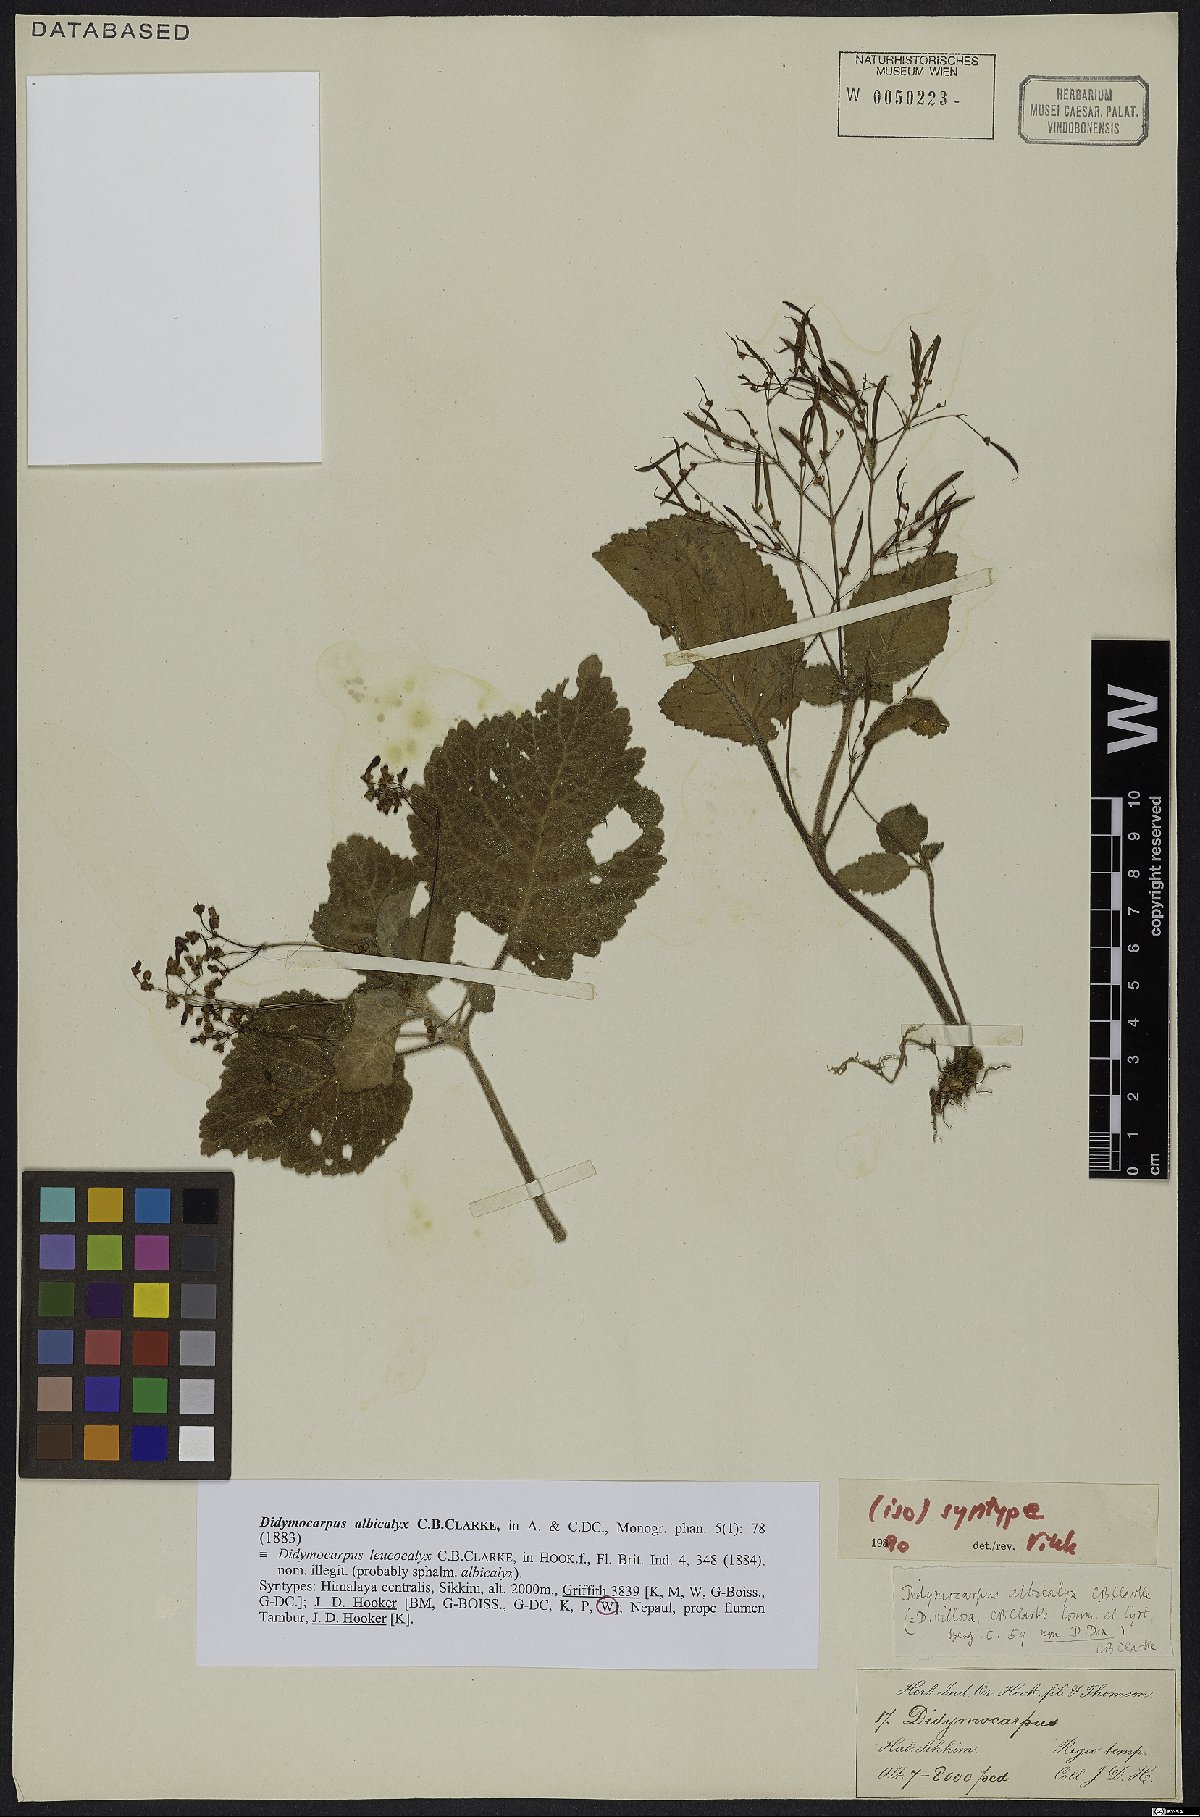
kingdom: Plantae
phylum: Tracheophyta
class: Magnoliopsida
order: Lamiales
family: Gesneriaceae
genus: Didymocarpus
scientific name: Didymocarpus albicalyx
